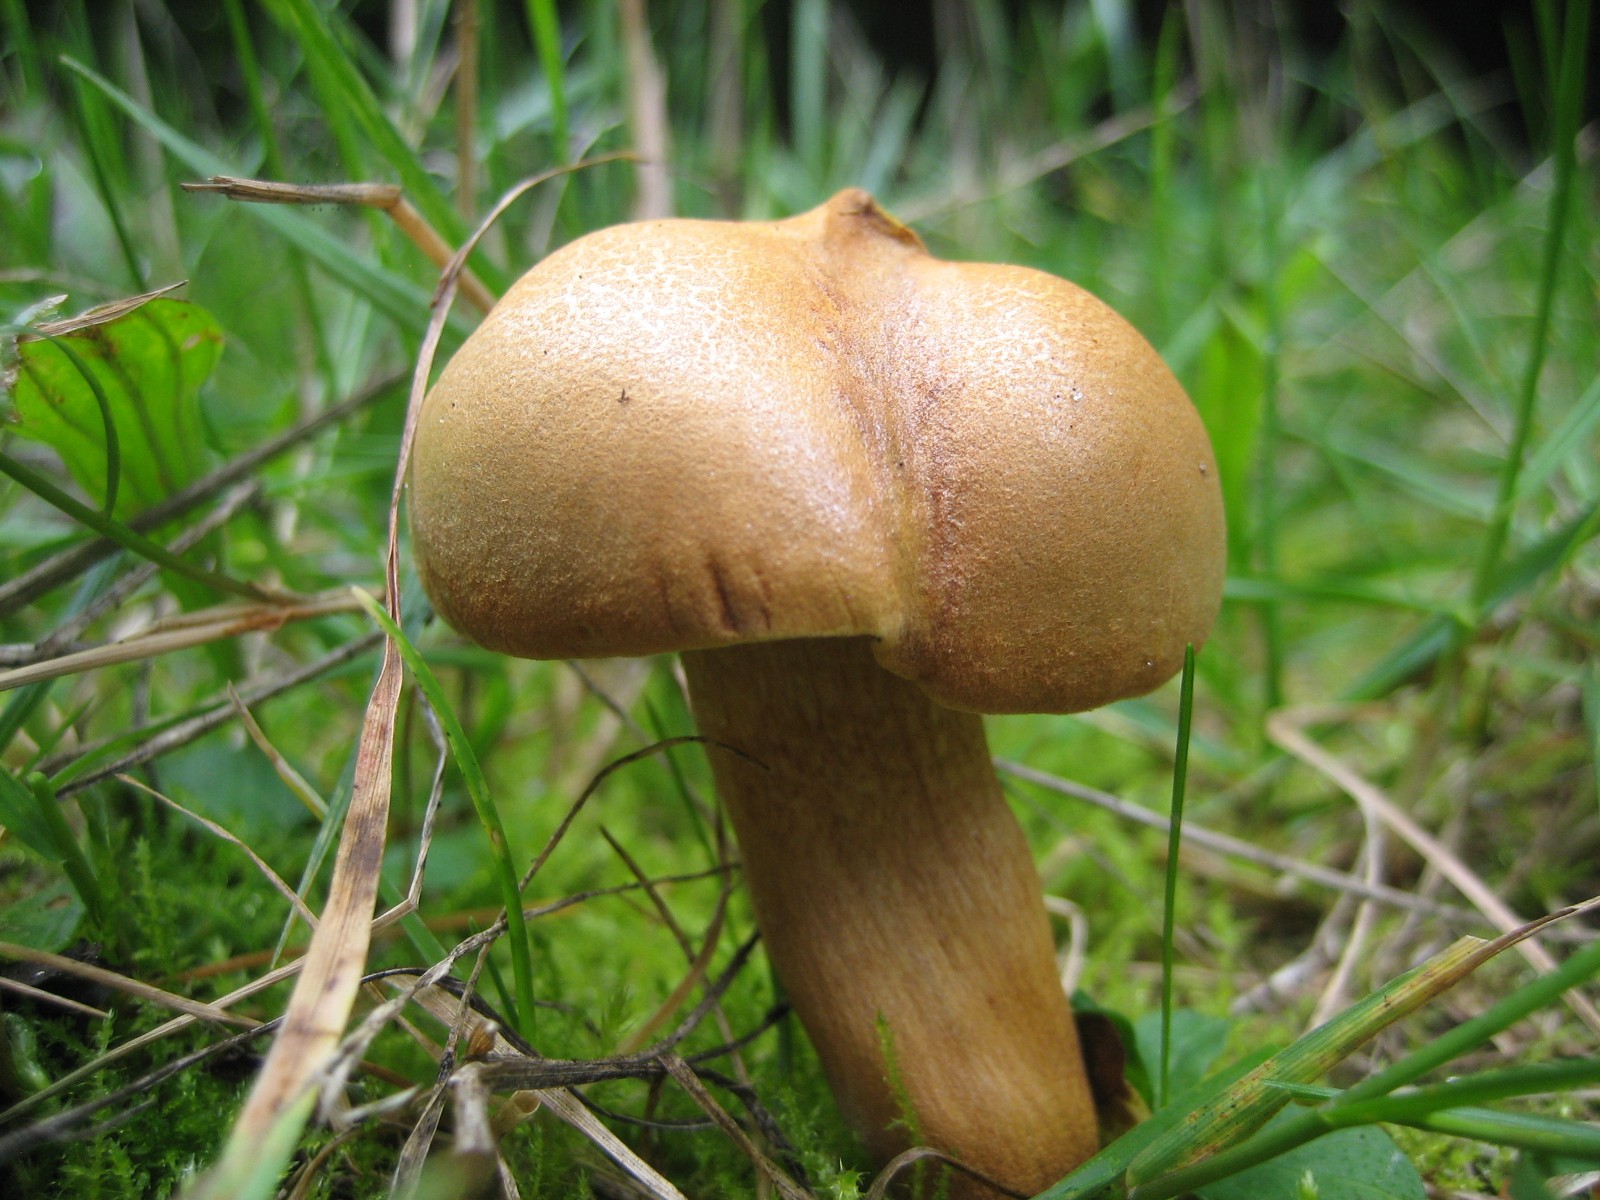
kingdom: Fungi
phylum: Basidiomycota
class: Agaricomycetes
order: Boletales
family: Boletaceae
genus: Chalciporus
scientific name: Chalciporus piperatus
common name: peberrørhat
